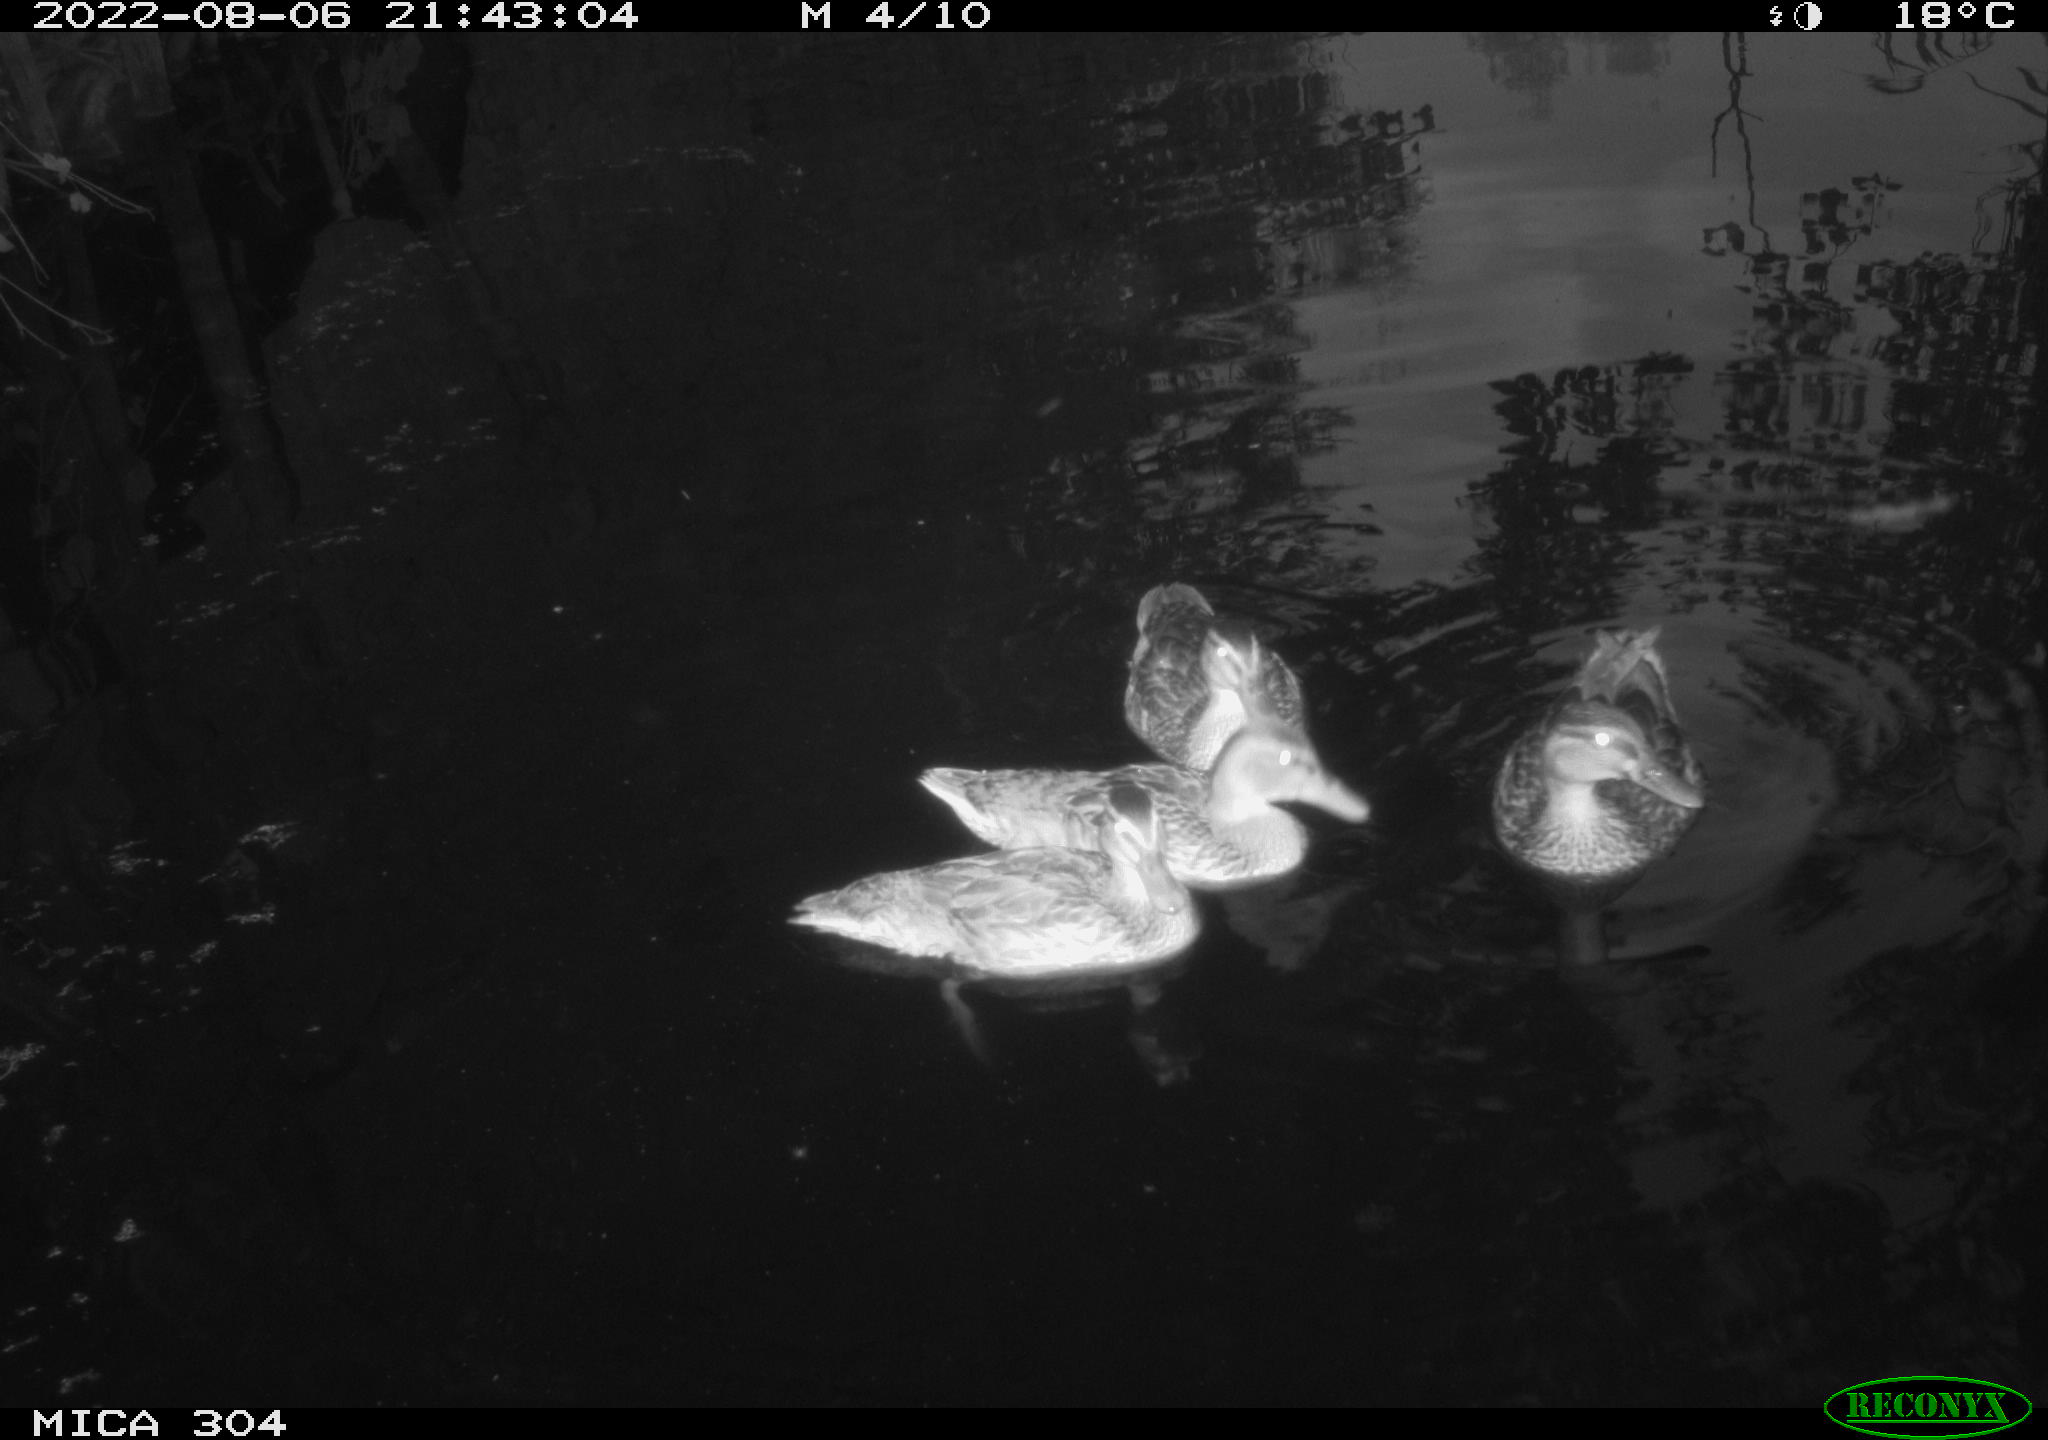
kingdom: Animalia
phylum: Chordata
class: Aves
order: Anseriformes
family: Anatidae
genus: Anas
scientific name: Anas platyrhynchos
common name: Mallard
